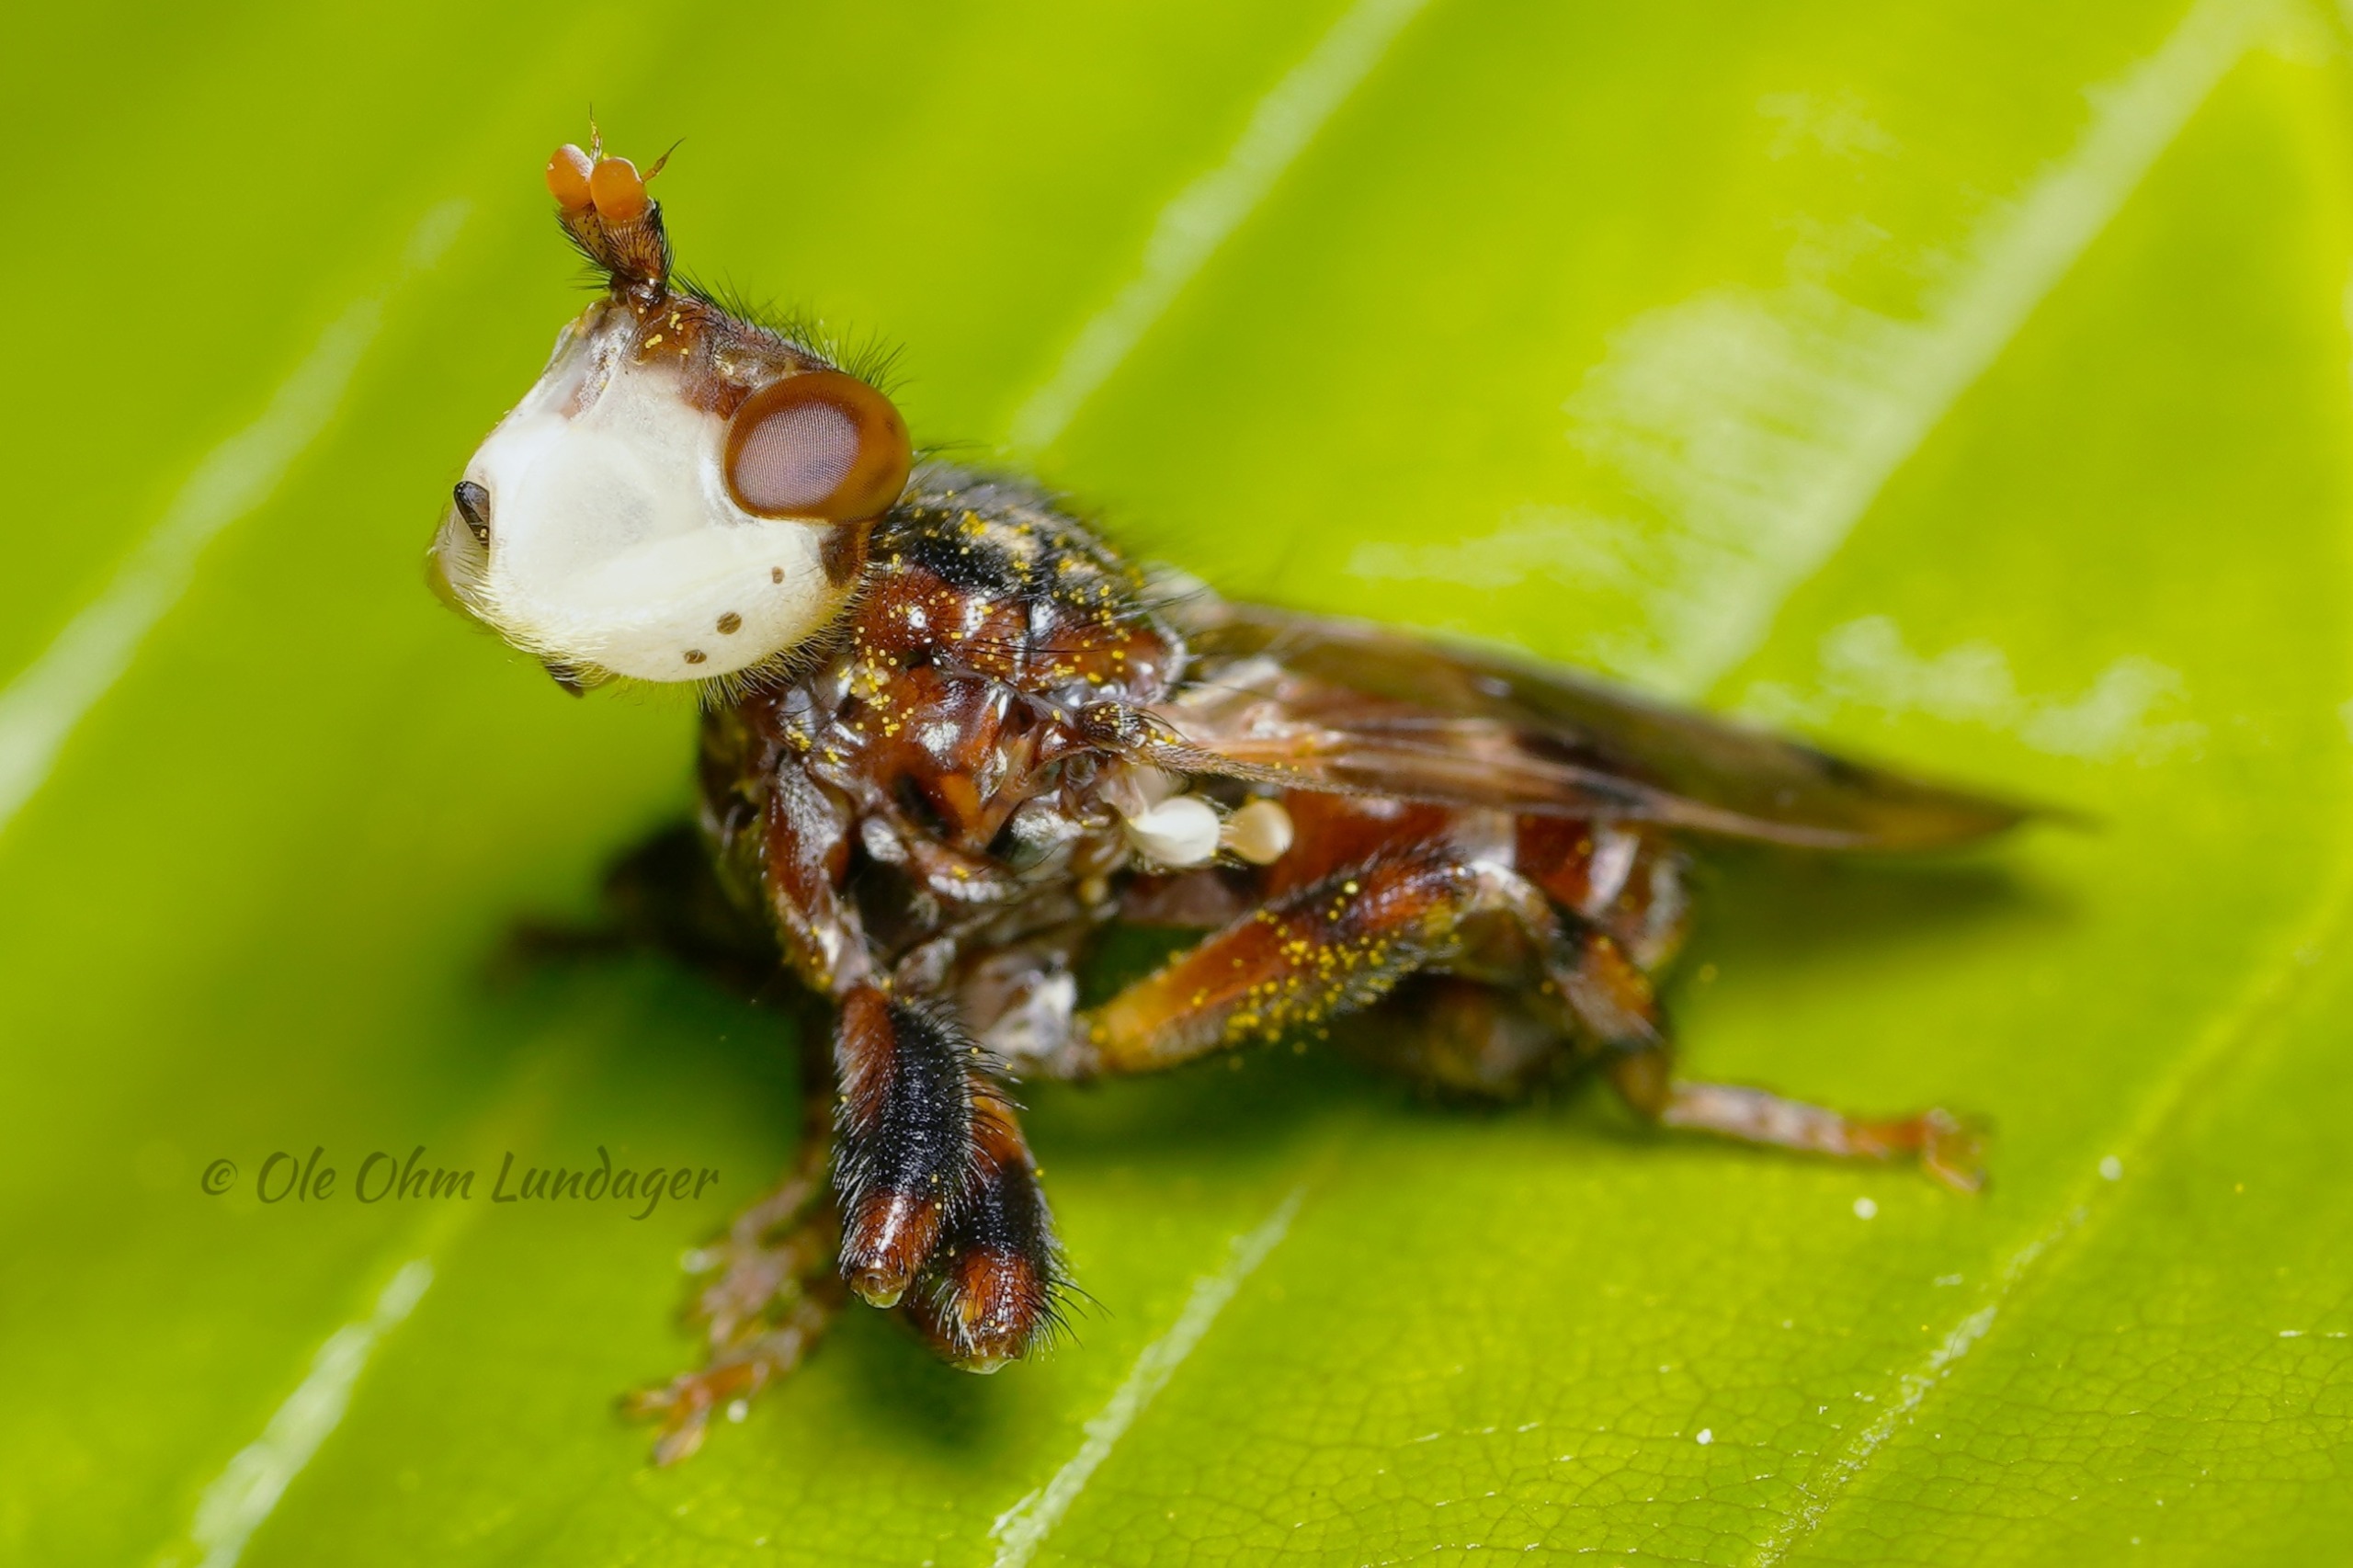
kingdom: Animalia
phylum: Arthropoda
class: Insecta
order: Diptera
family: Conopidae
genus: Myopa
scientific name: Myopa buccata
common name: Brun hvepseflue
